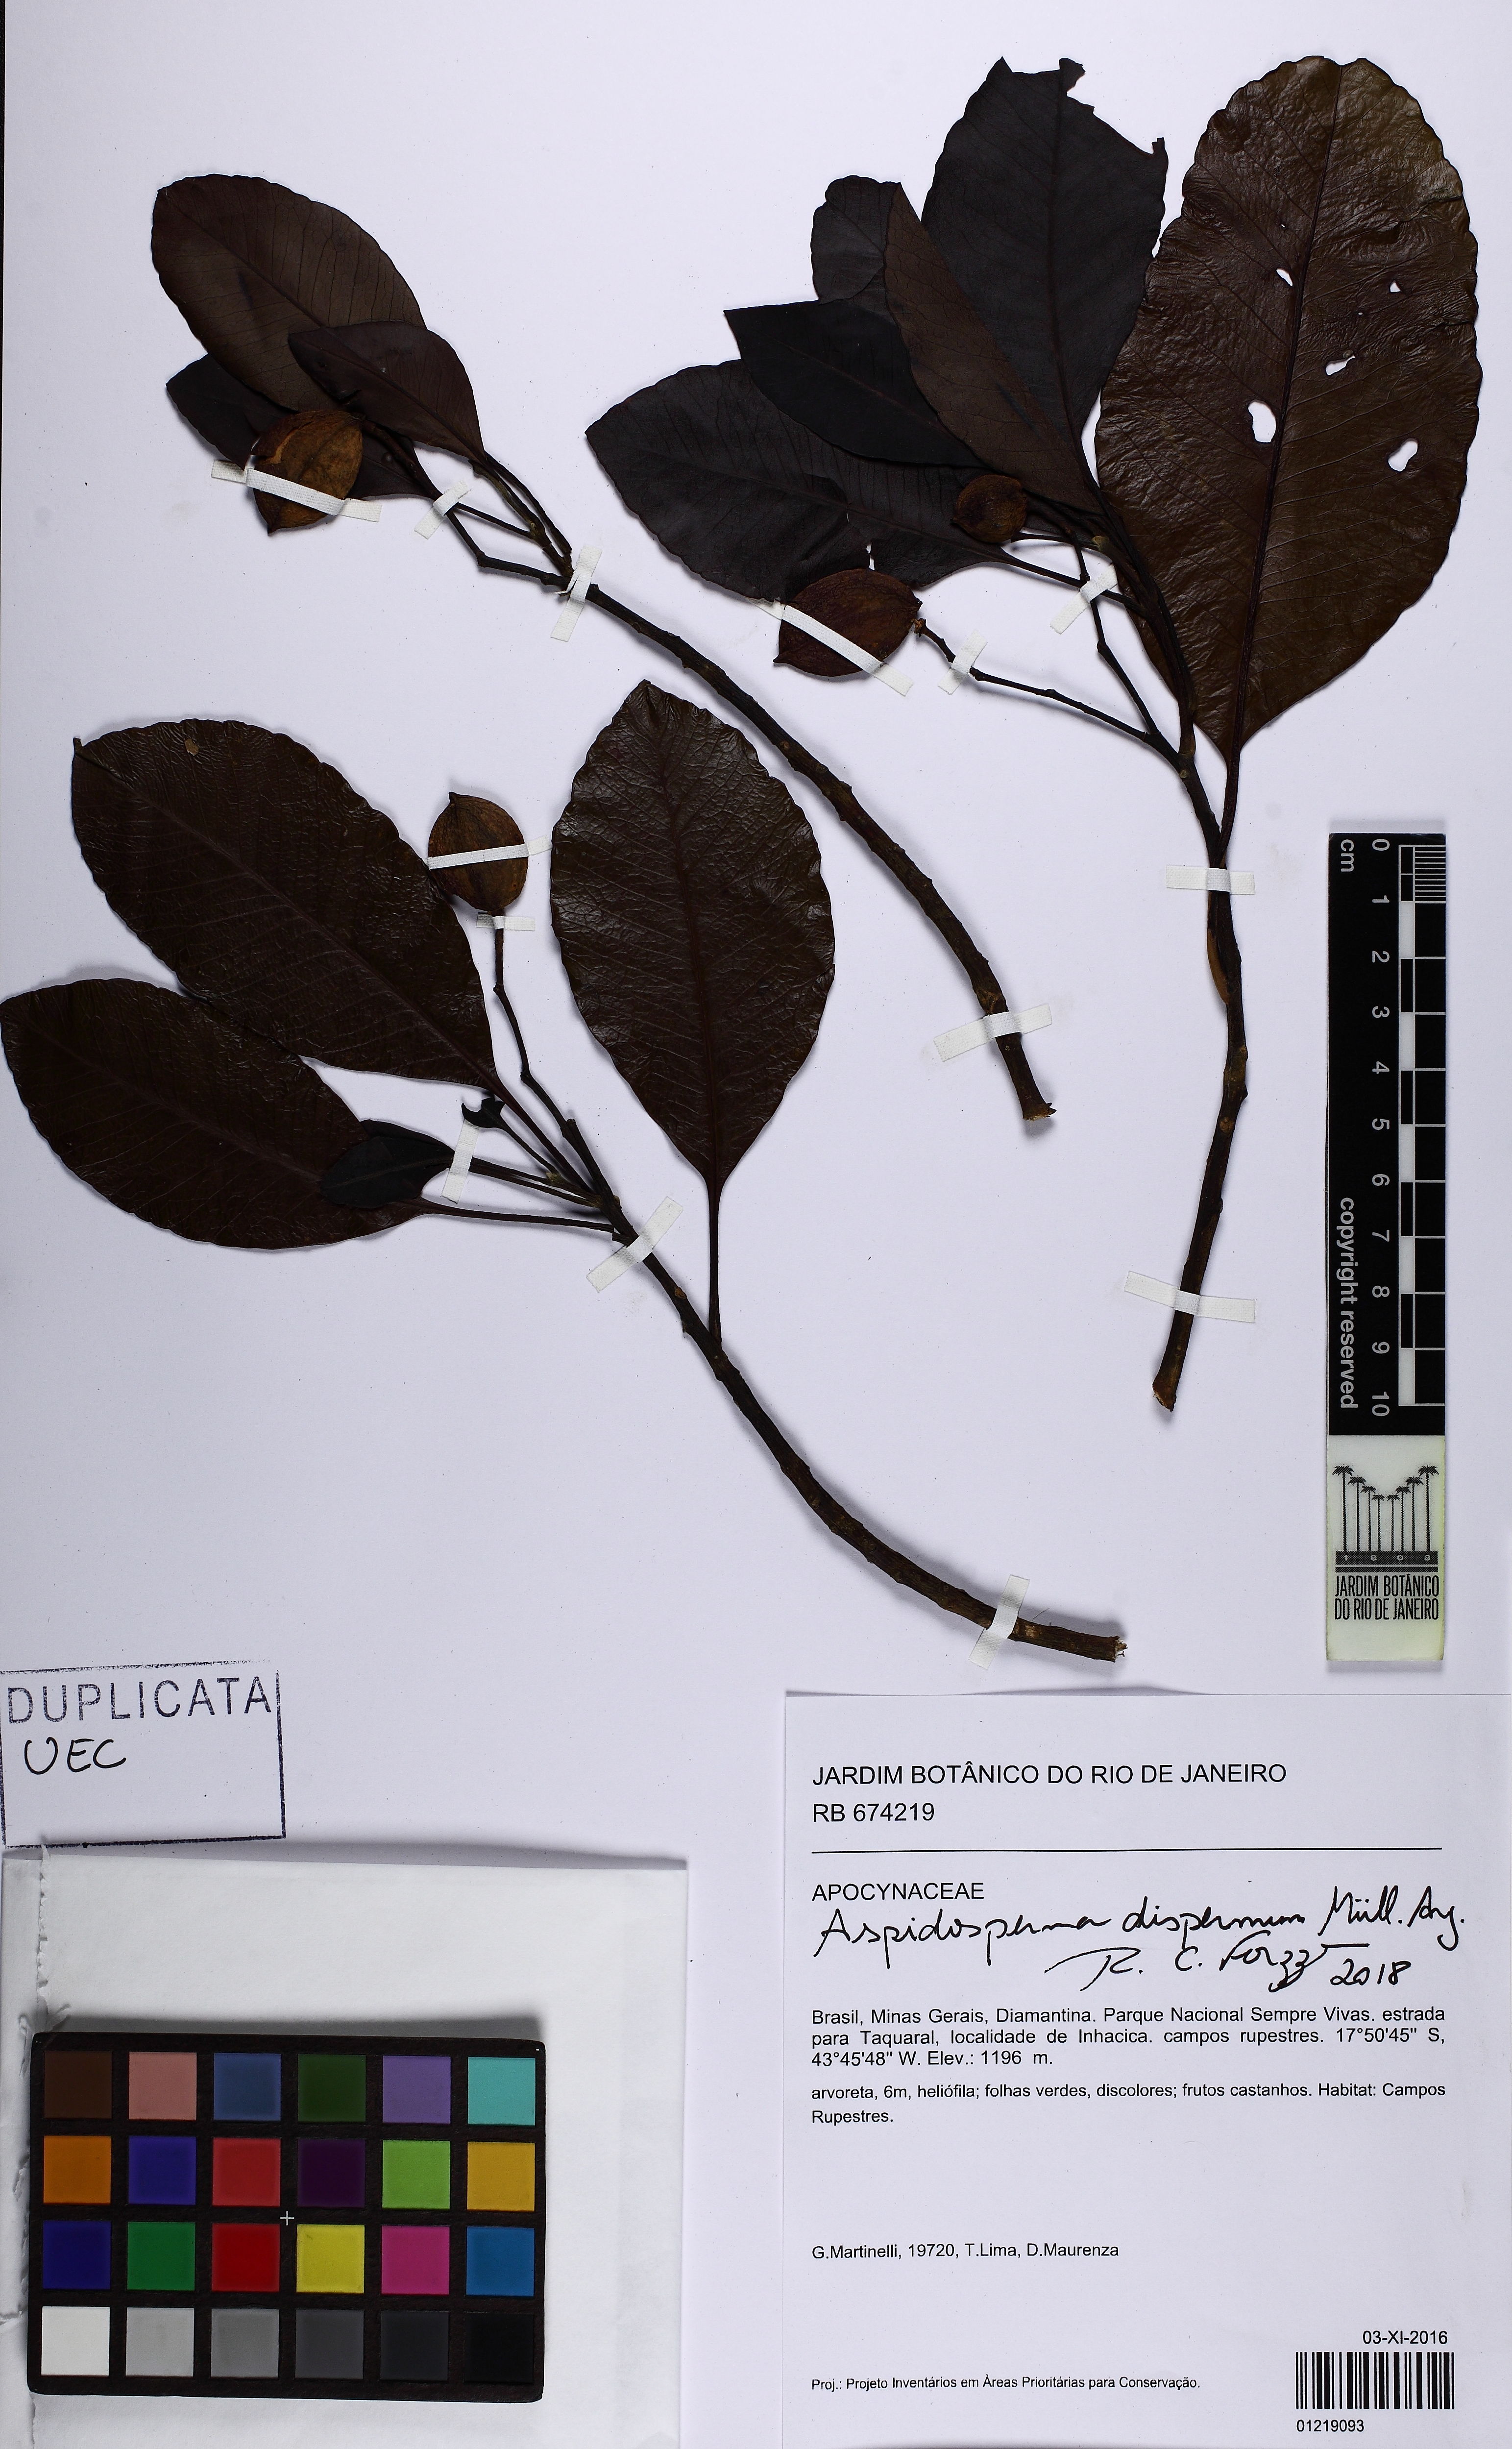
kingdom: Plantae
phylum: Tracheophyta
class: Magnoliopsida
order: Gentianales
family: Apocynaceae
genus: Aspidosperma
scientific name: Aspidosperma
